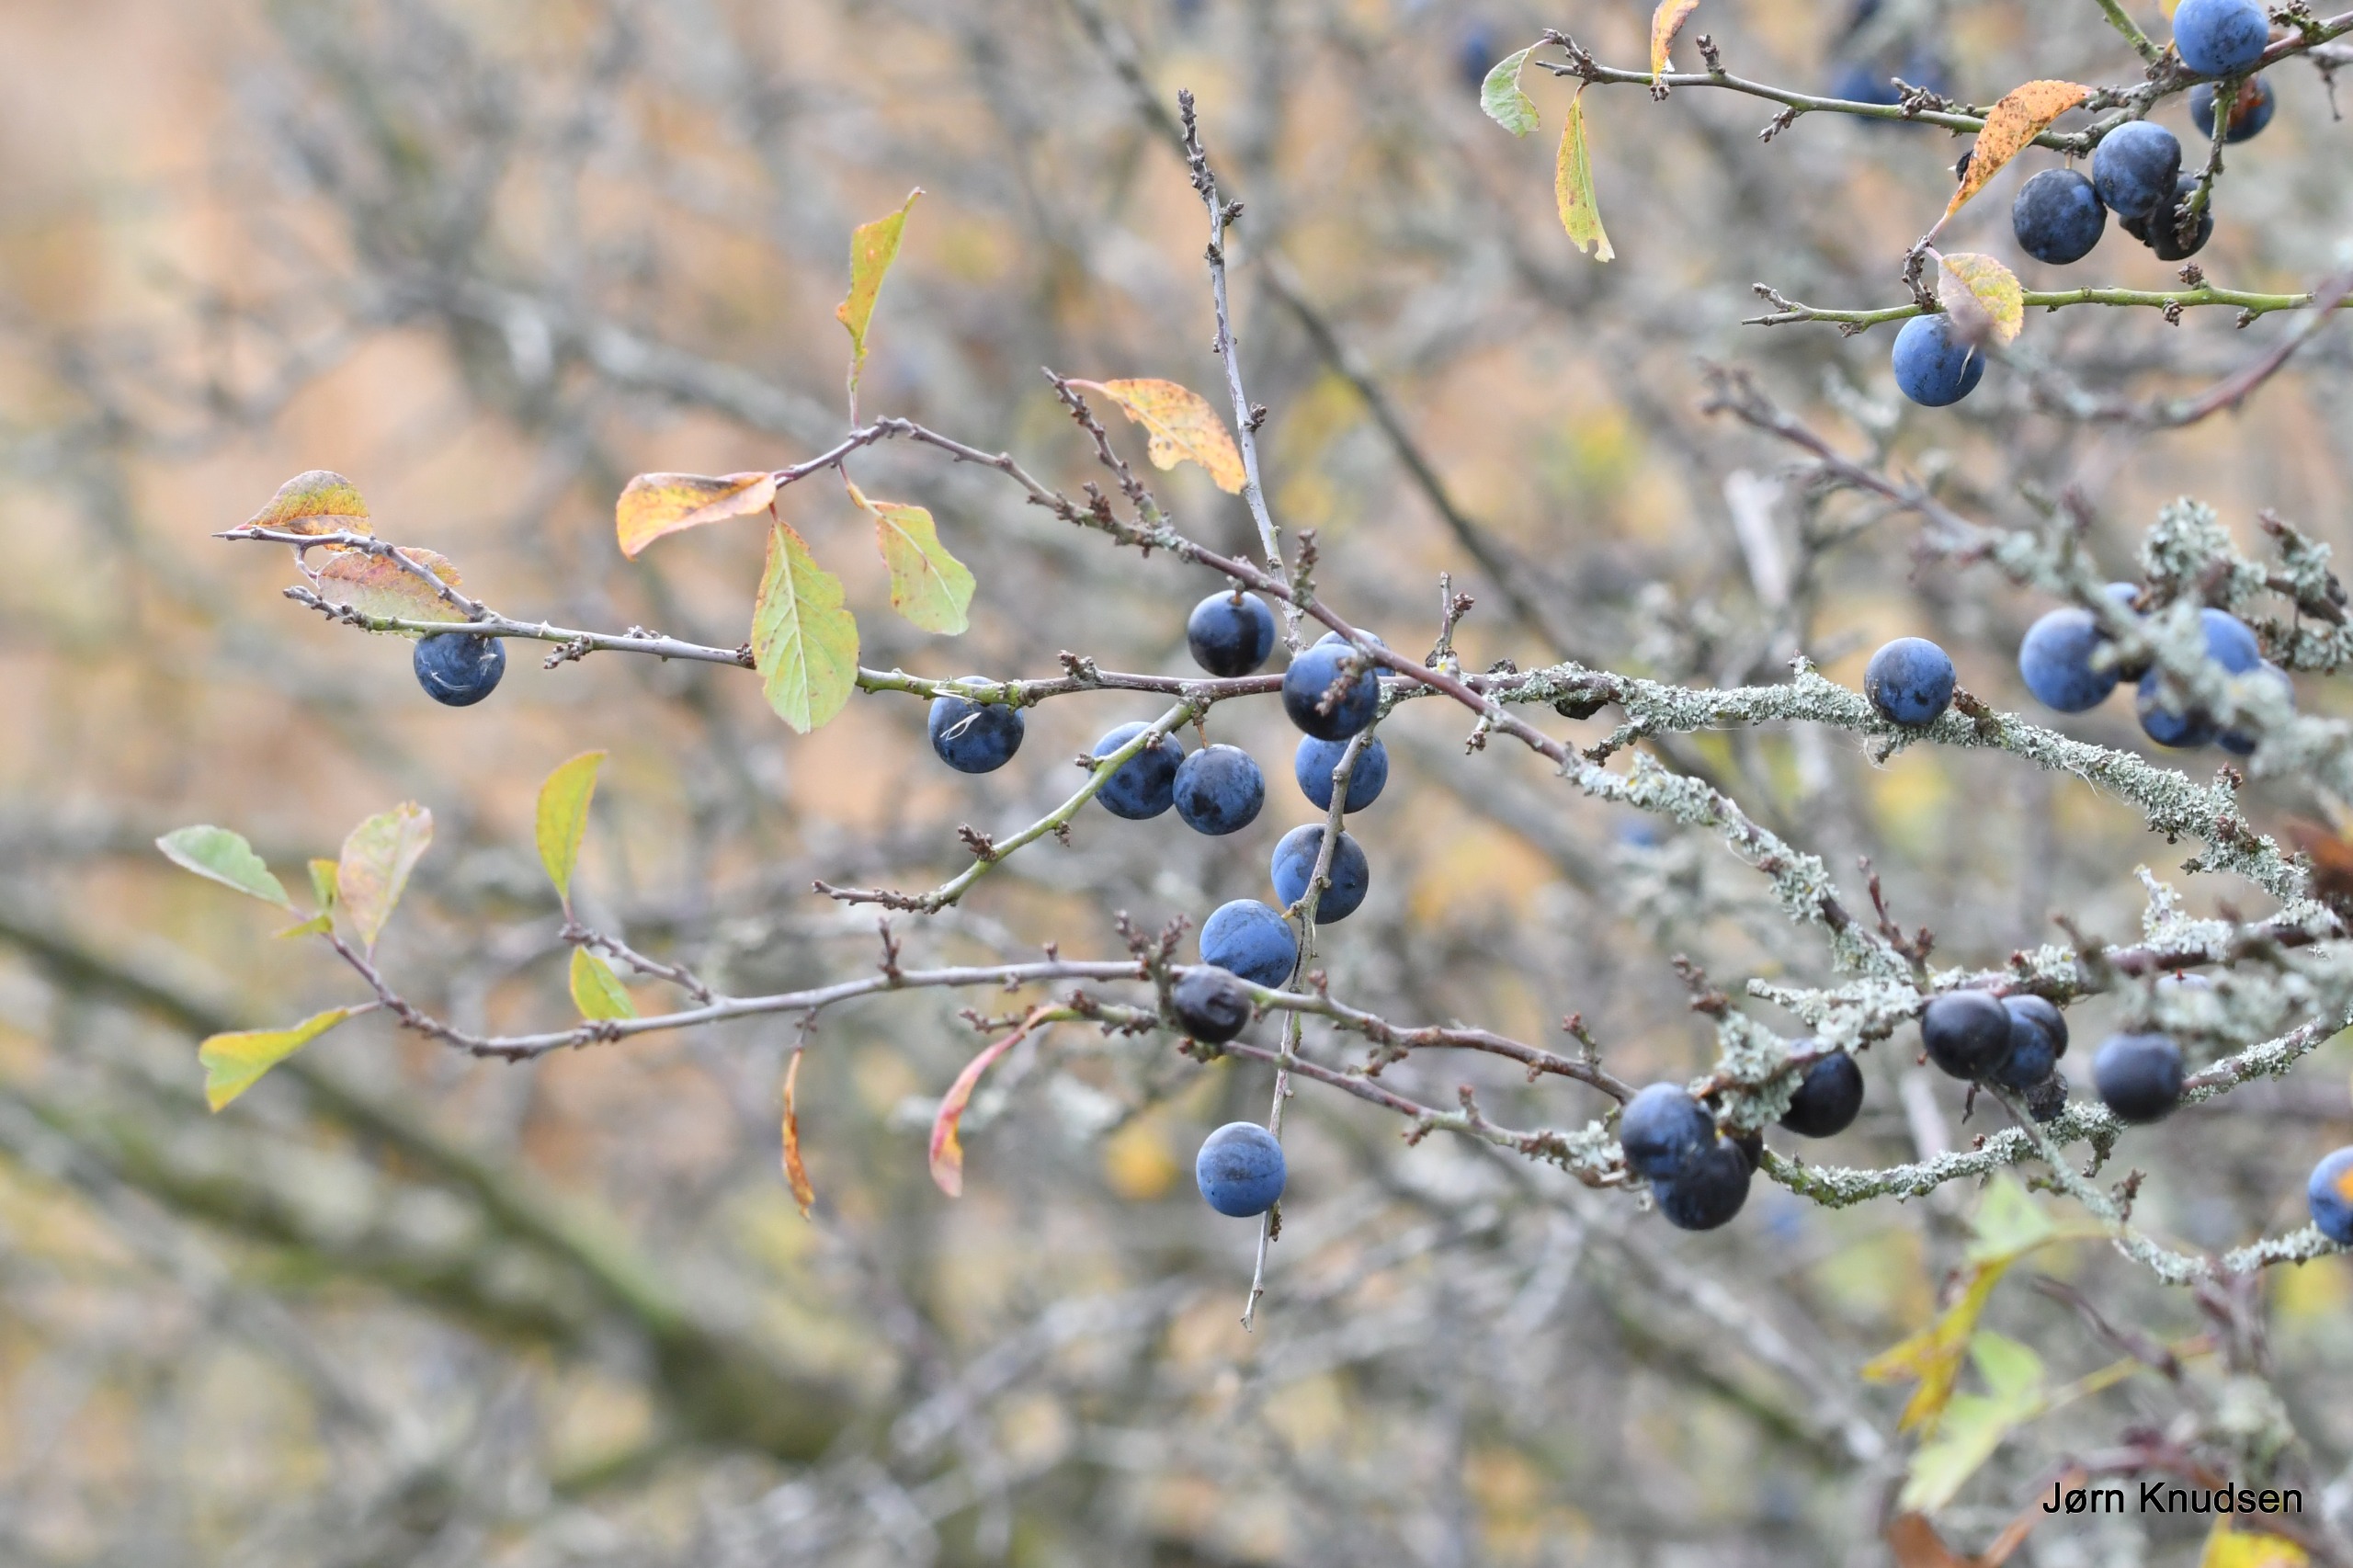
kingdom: Plantae
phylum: Tracheophyta
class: Magnoliopsida
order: Rosales
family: Rosaceae
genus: Prunus
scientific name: Prunus spinosa
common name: Slåen
